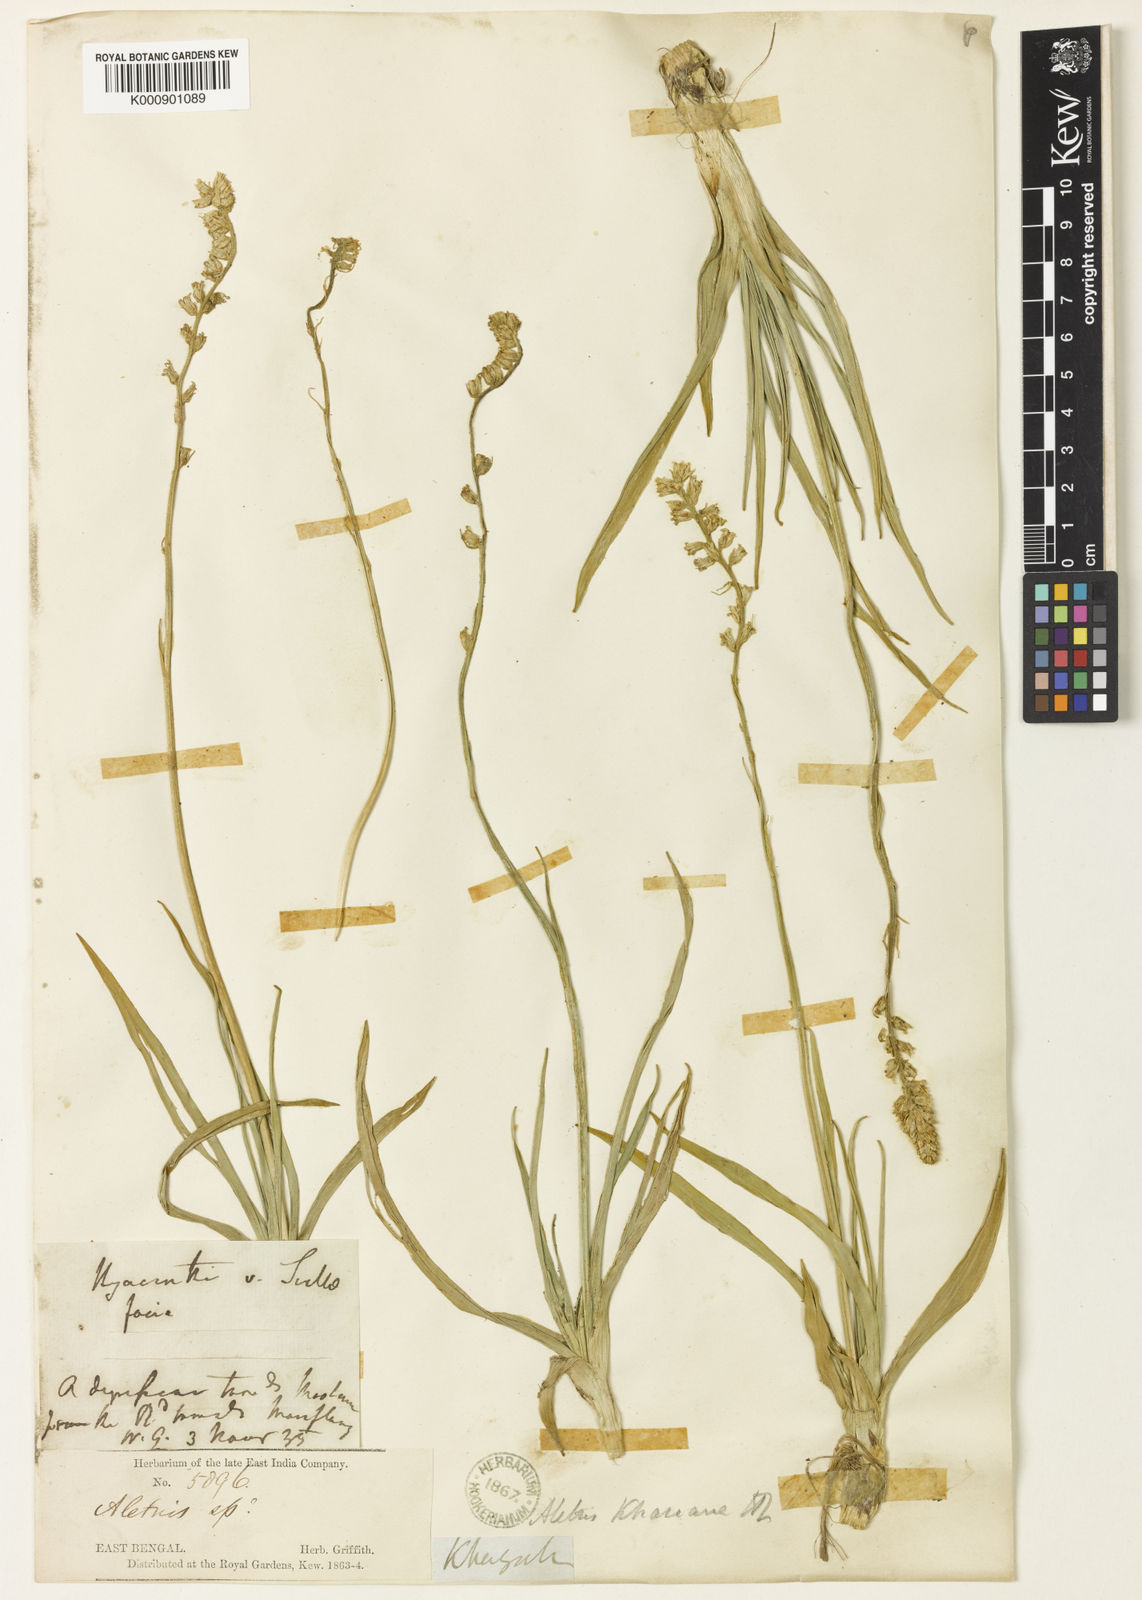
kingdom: Plantae
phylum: Tracheophyta
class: Liliopsida
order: Dioscoreales
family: Nartheciaceae
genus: Aletris
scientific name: Aletris pauciflora
